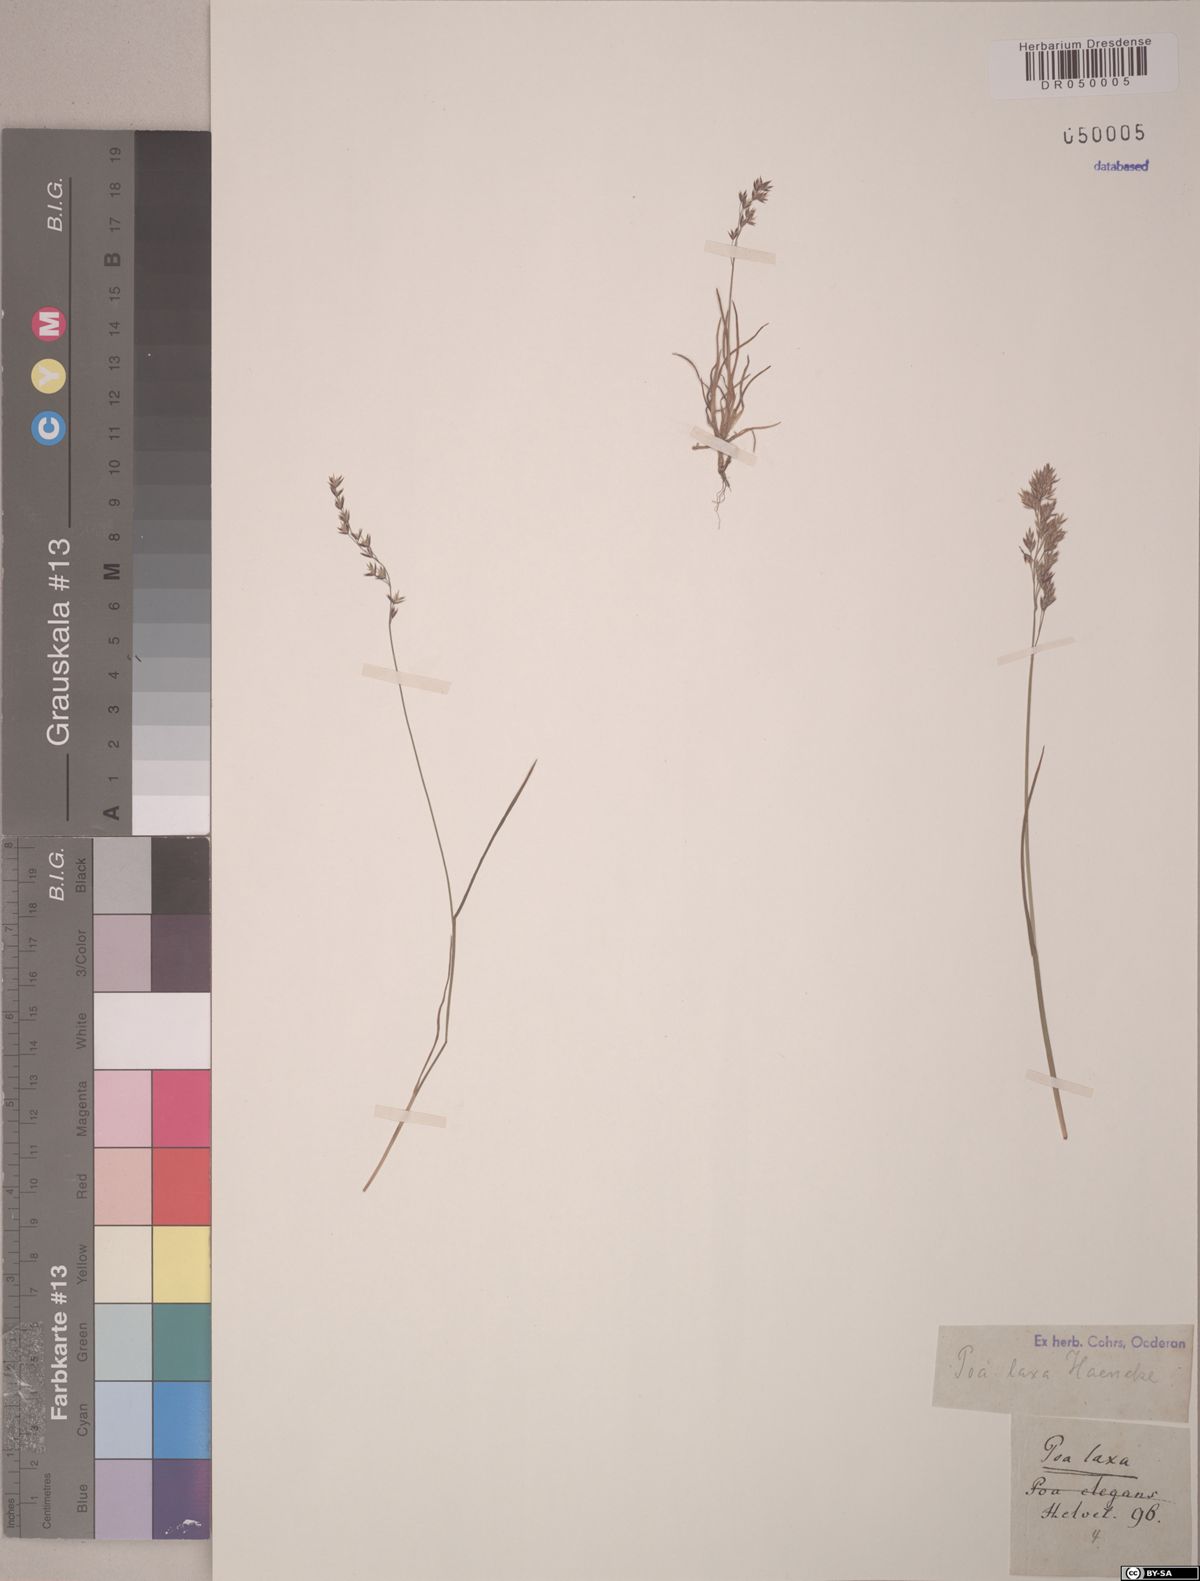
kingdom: Plantae
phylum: Tracheophyta
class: Liliopsida
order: Poales
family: Poaceae
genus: Poa
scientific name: Poa laxa
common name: Lax bluegrass
